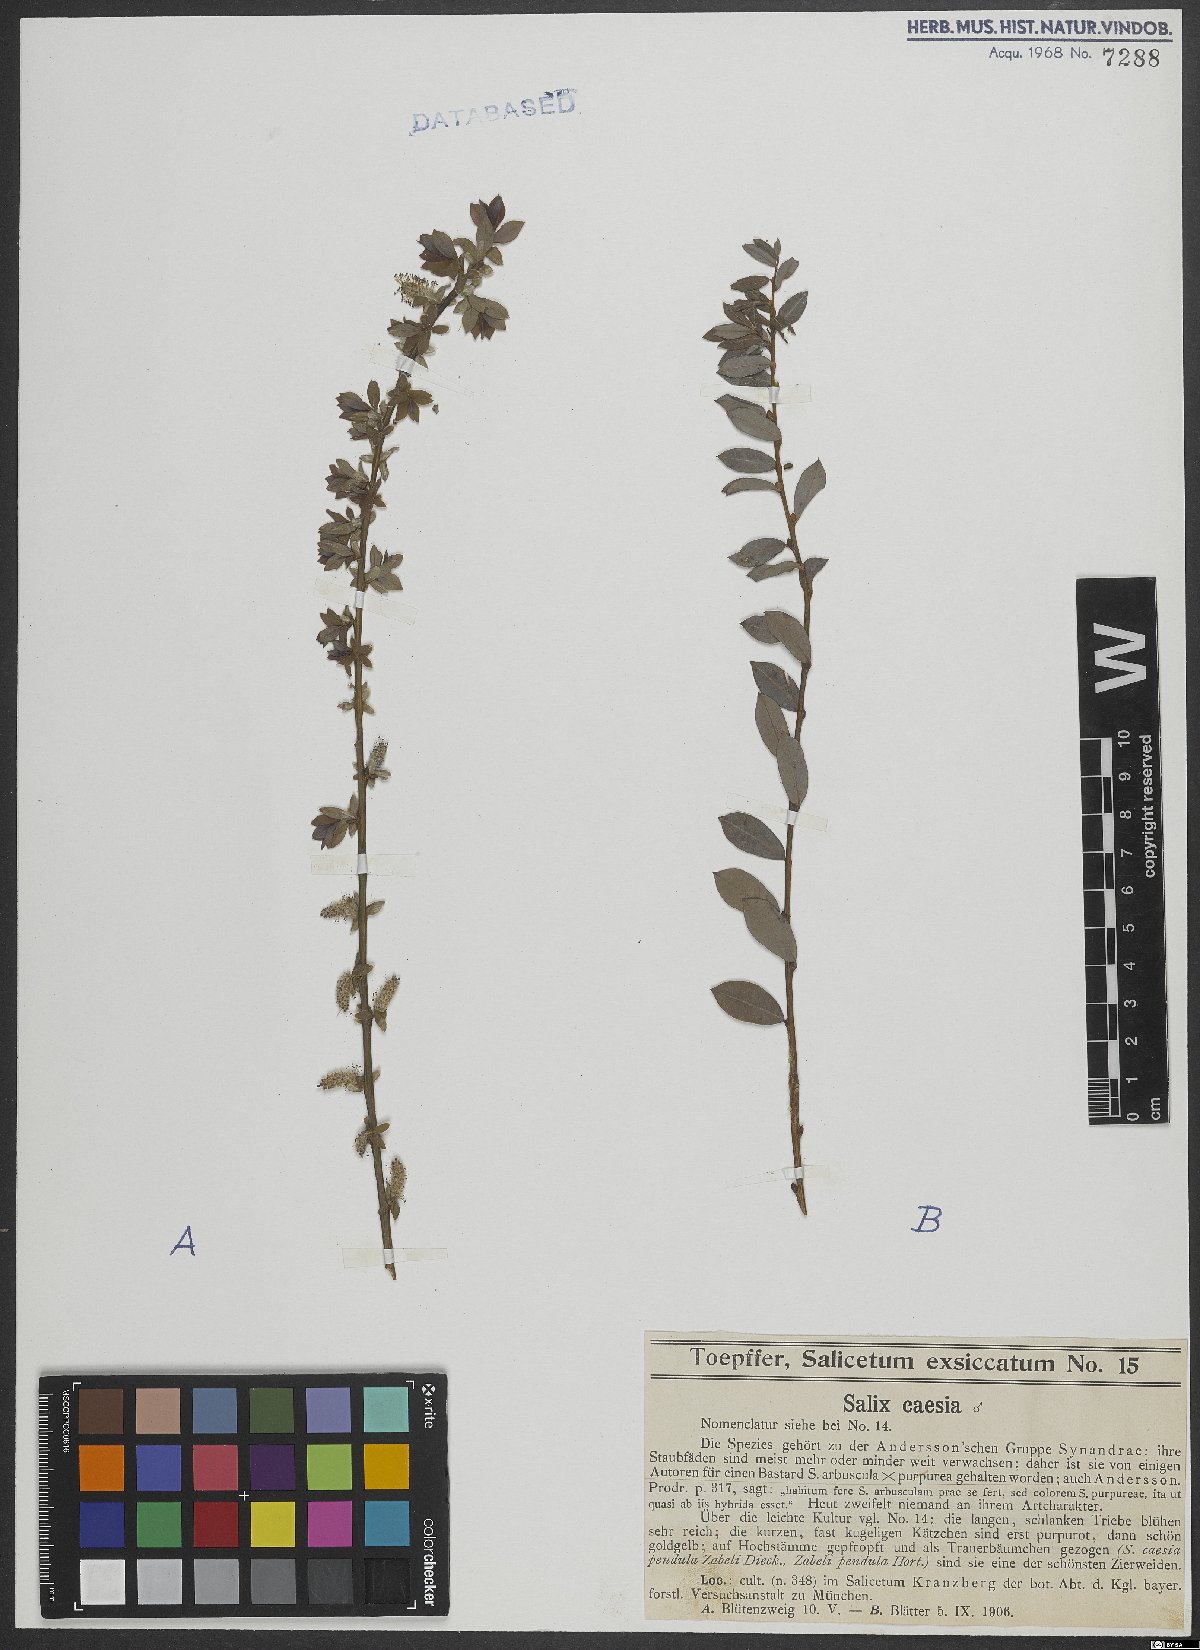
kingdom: Plantae
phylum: Tracheophyta
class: Magnoliopsida
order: Malpighiales
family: Salicaceae
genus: Salix
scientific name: Salix caesia
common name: Blue willow
